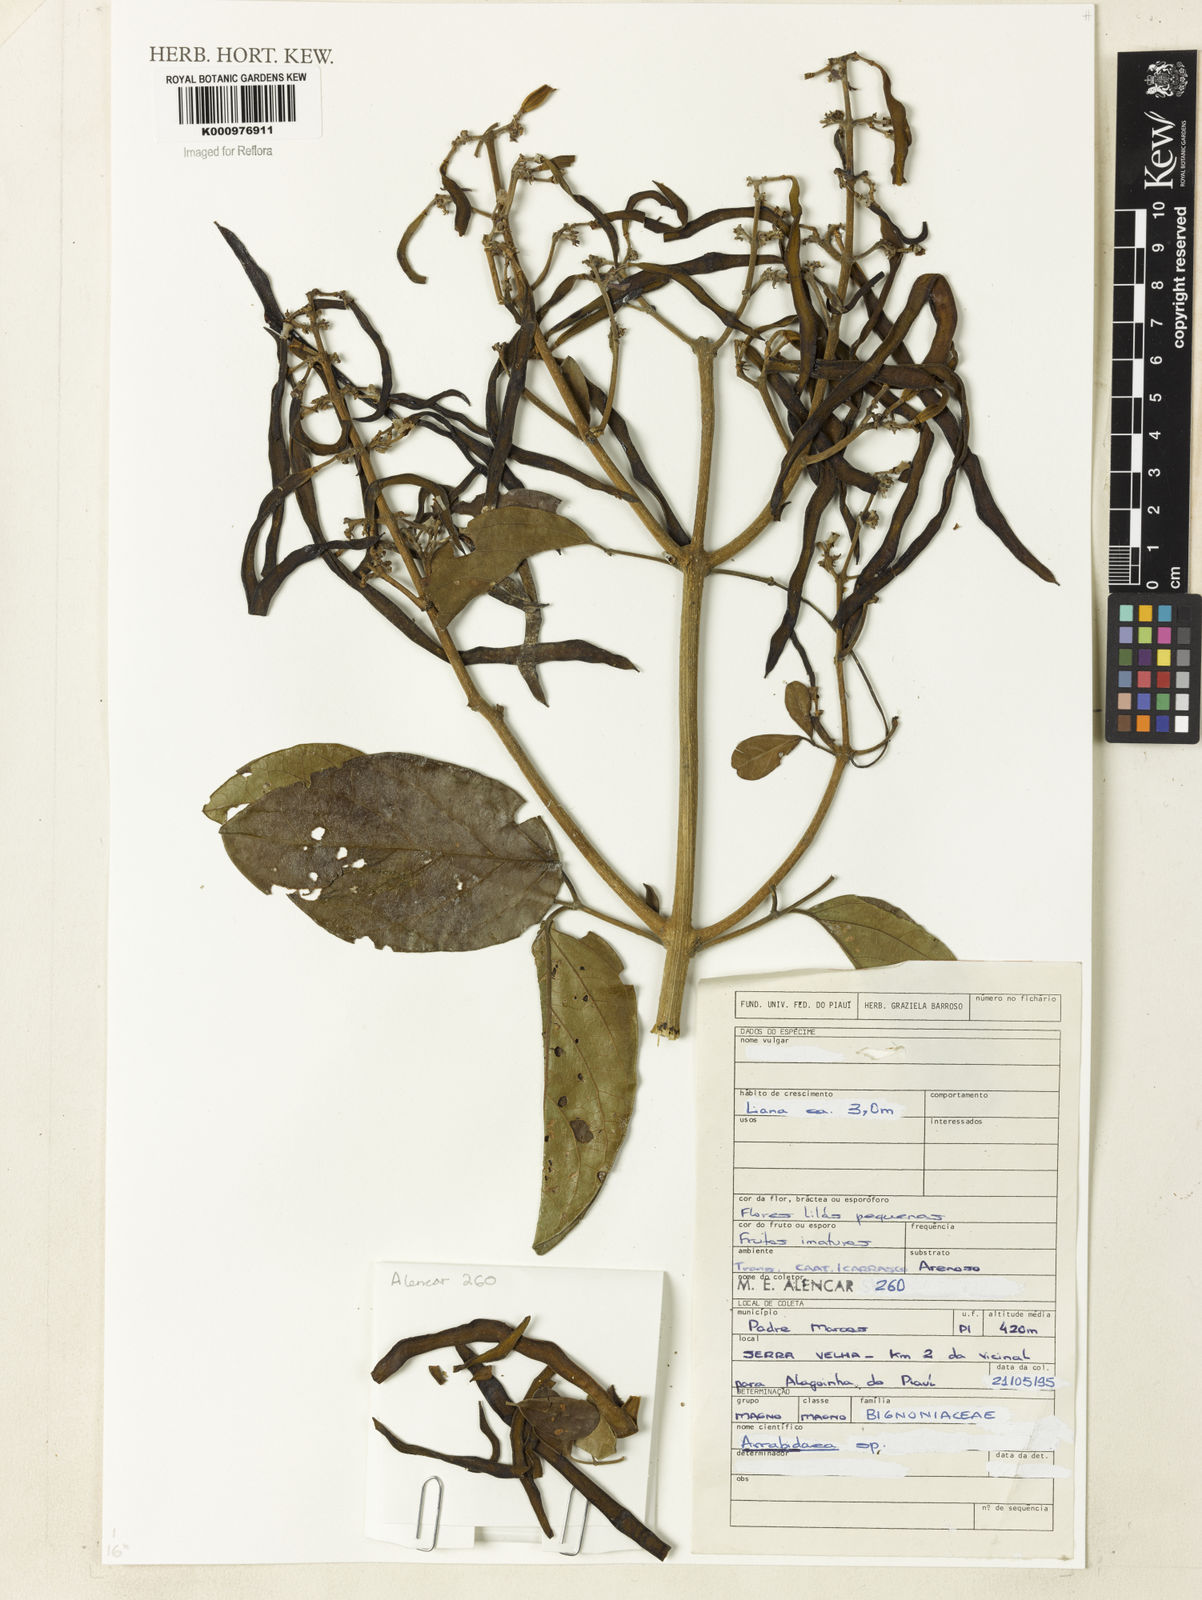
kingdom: Plantae
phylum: Tracheophyta
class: Magnoliopsida
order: Rosales
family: Rhamnaceae
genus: Arrabidaea
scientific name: Arrabidaea
